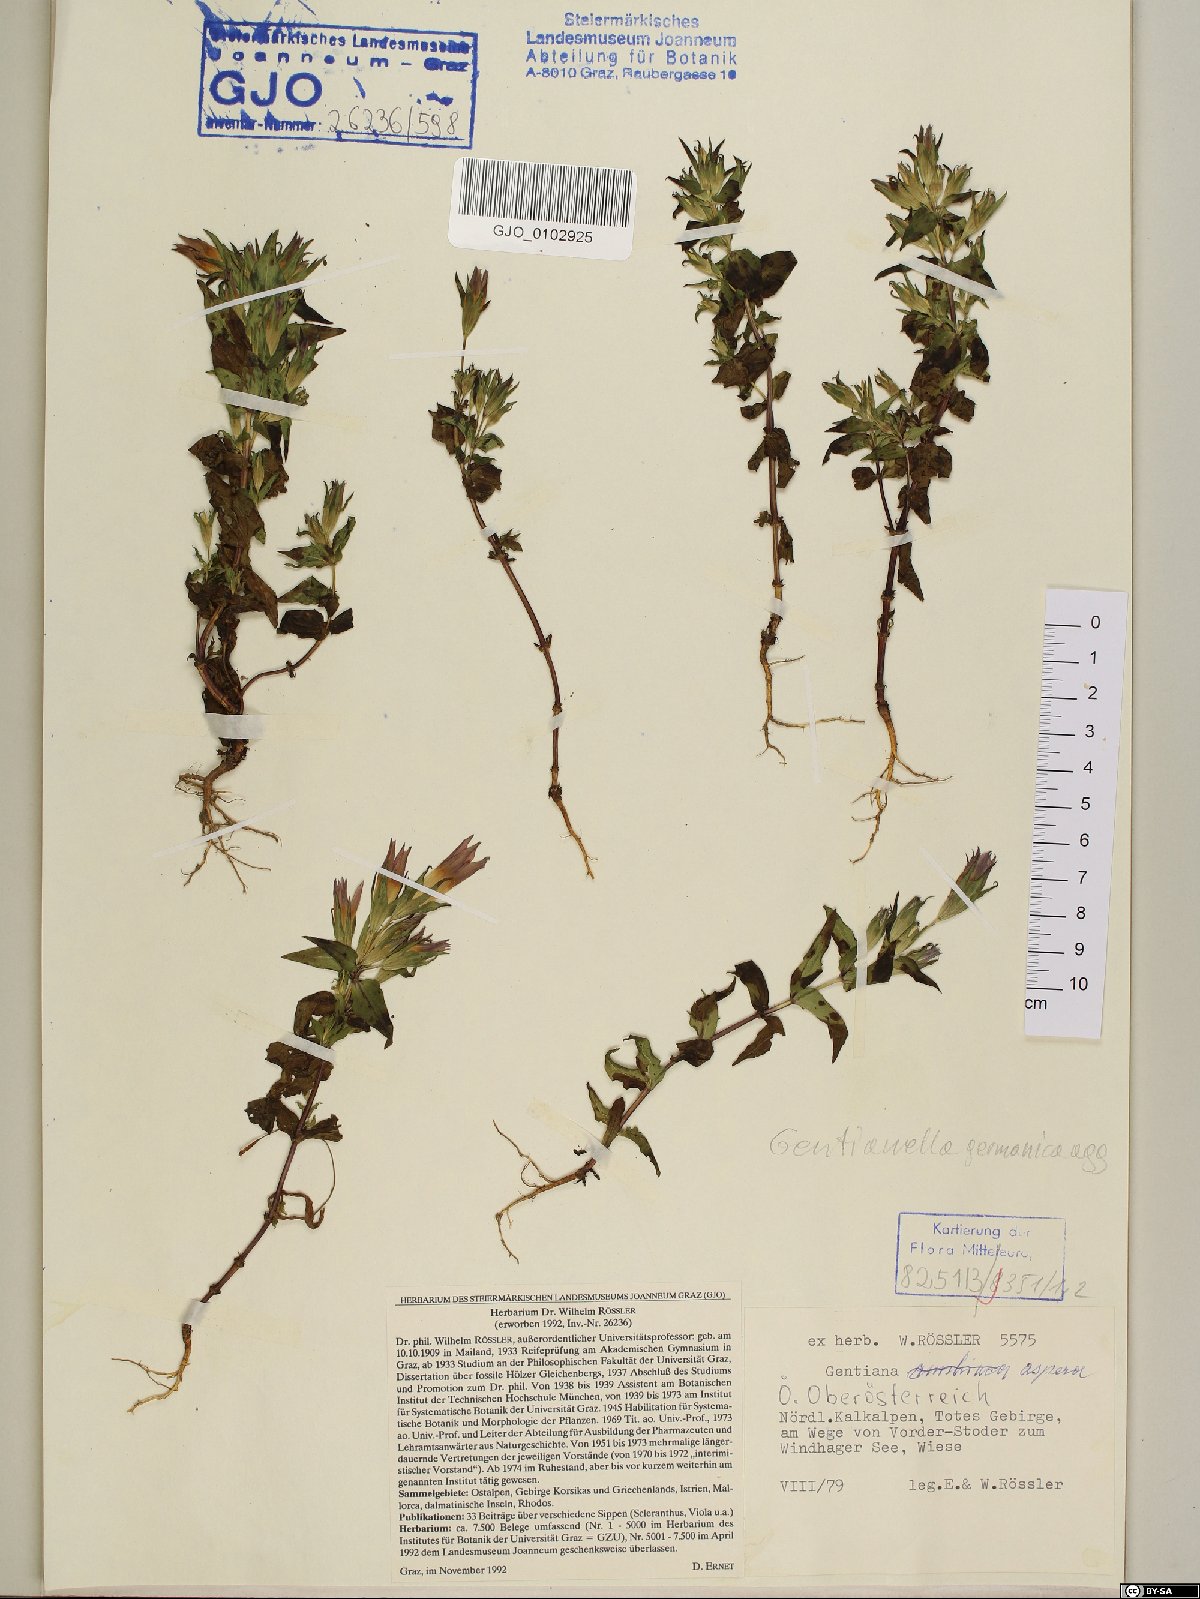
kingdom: Plantae
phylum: Tracheophyta
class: Magnoliopsida
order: Gentianales
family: Gentianaceae
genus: Gentianella
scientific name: Gentianella obtusifolia
